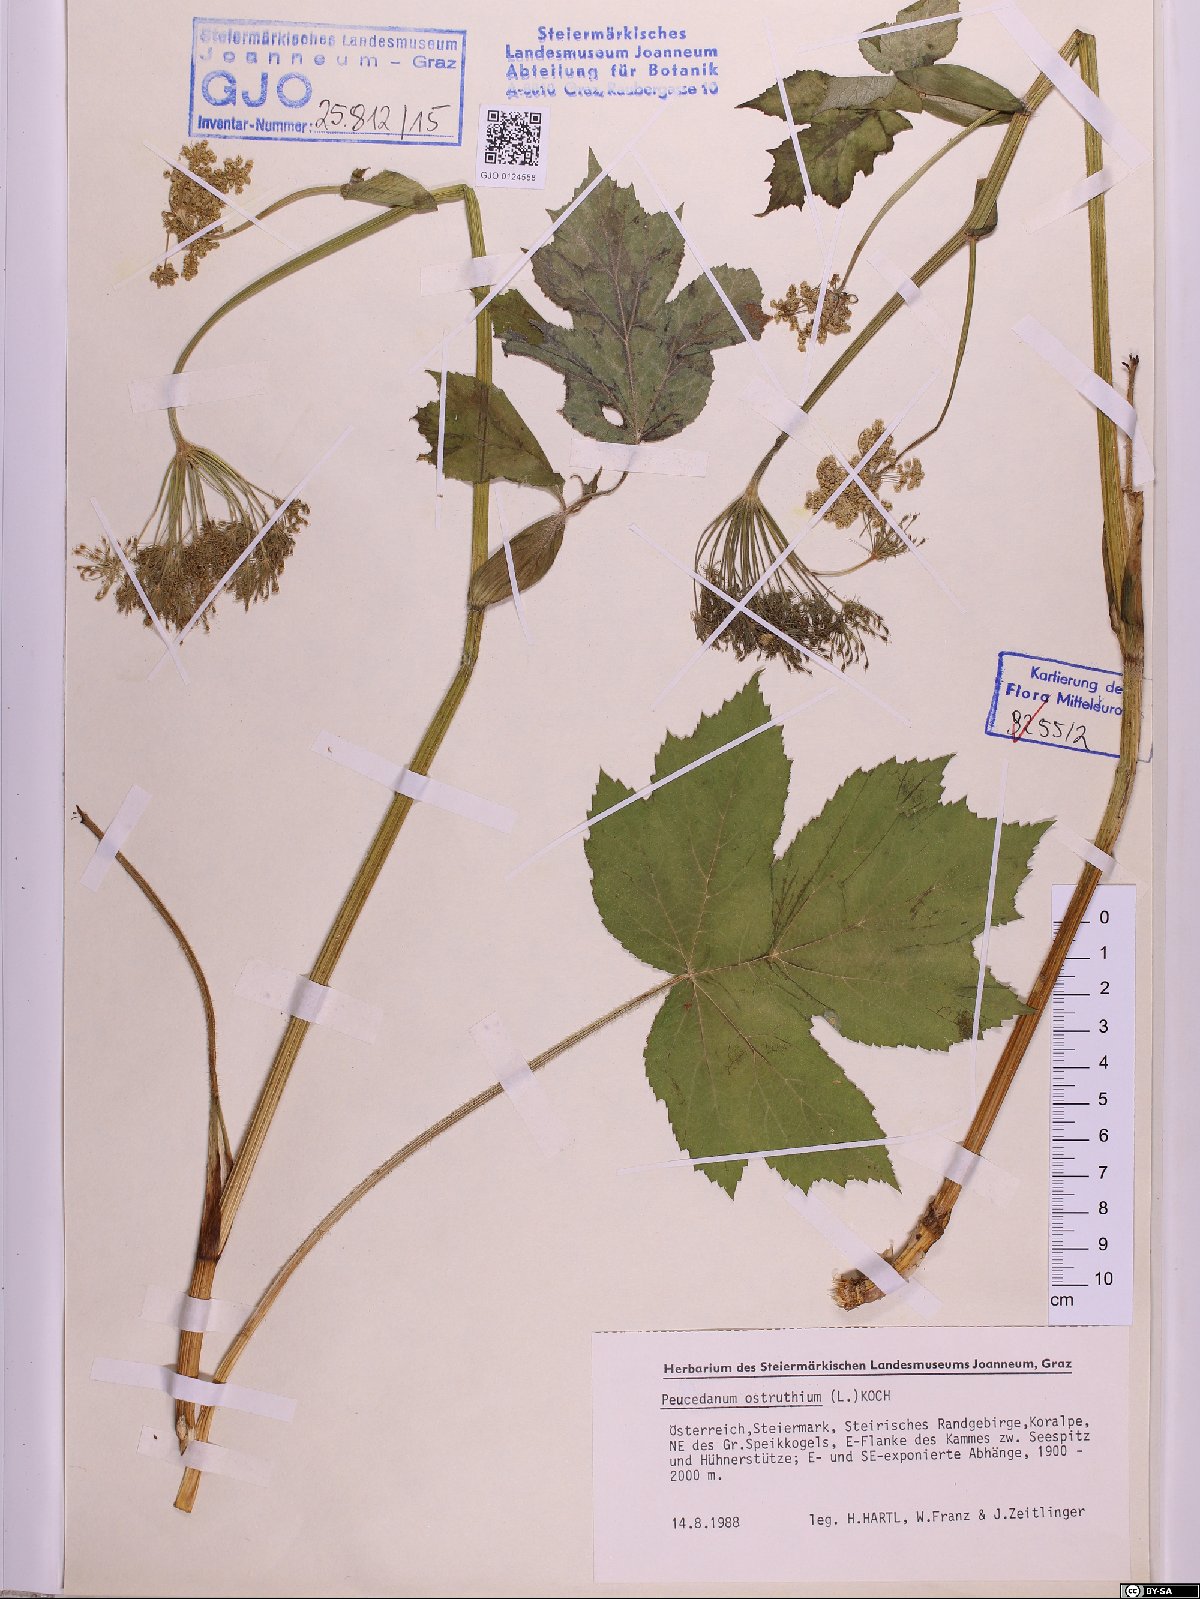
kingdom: Plantae
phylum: Tracheophyta
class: Magnoliopsida
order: Apiales
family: Apiaceae
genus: Imperatoria
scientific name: Imperatoria ostruthium
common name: Masterwort
